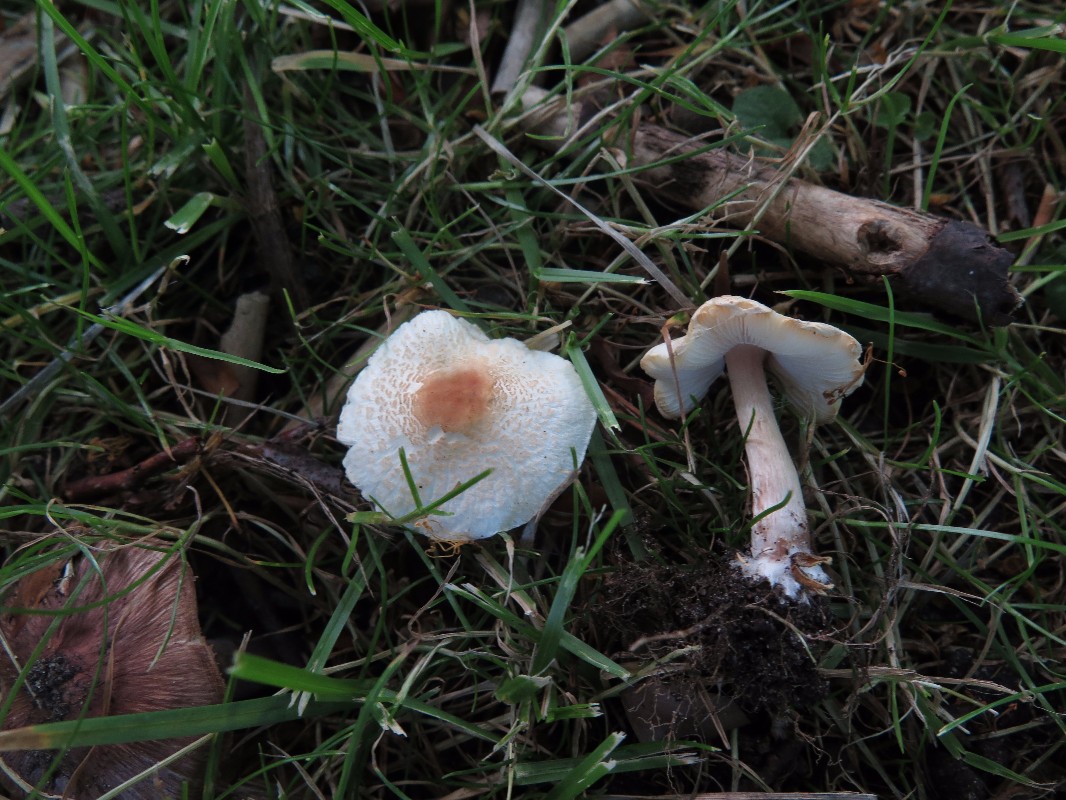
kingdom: Fungi
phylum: Basidiomycota
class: Agaricomycetes
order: Agaricales
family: Agaricaceae
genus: Lepiota
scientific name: Lepiota cristata
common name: stinkende parasolhat
